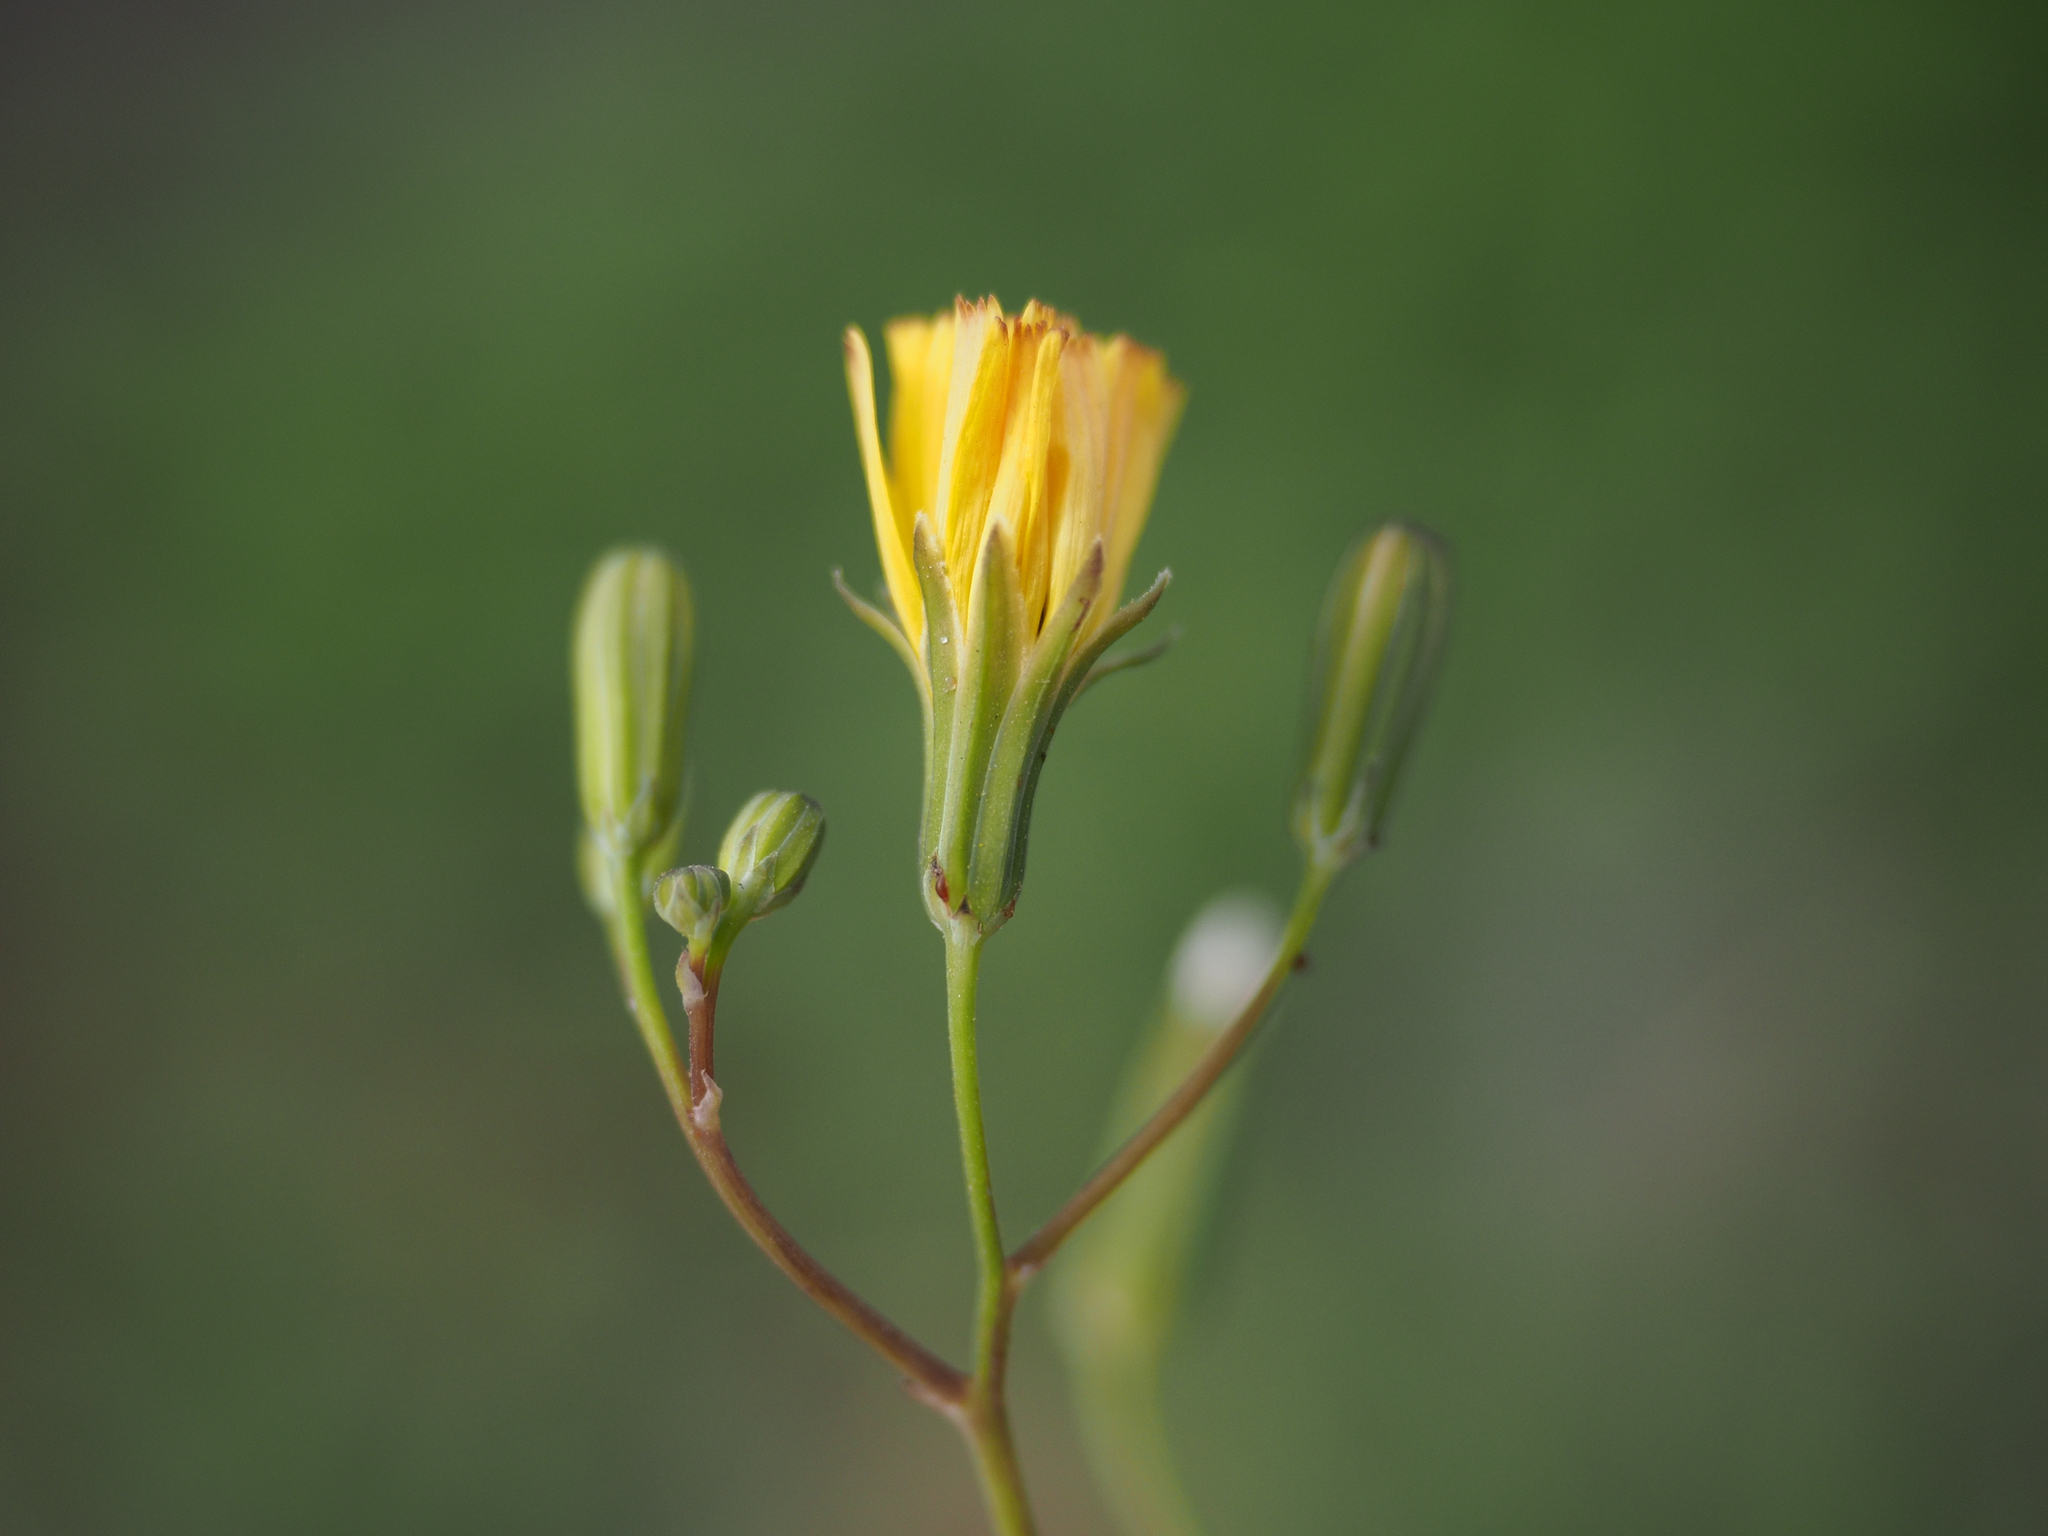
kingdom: Plantae
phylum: Tracheophyta
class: Magnoliopsida
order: Asterales
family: Asteraceae
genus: Ixeris
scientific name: Ixeris chinensis
